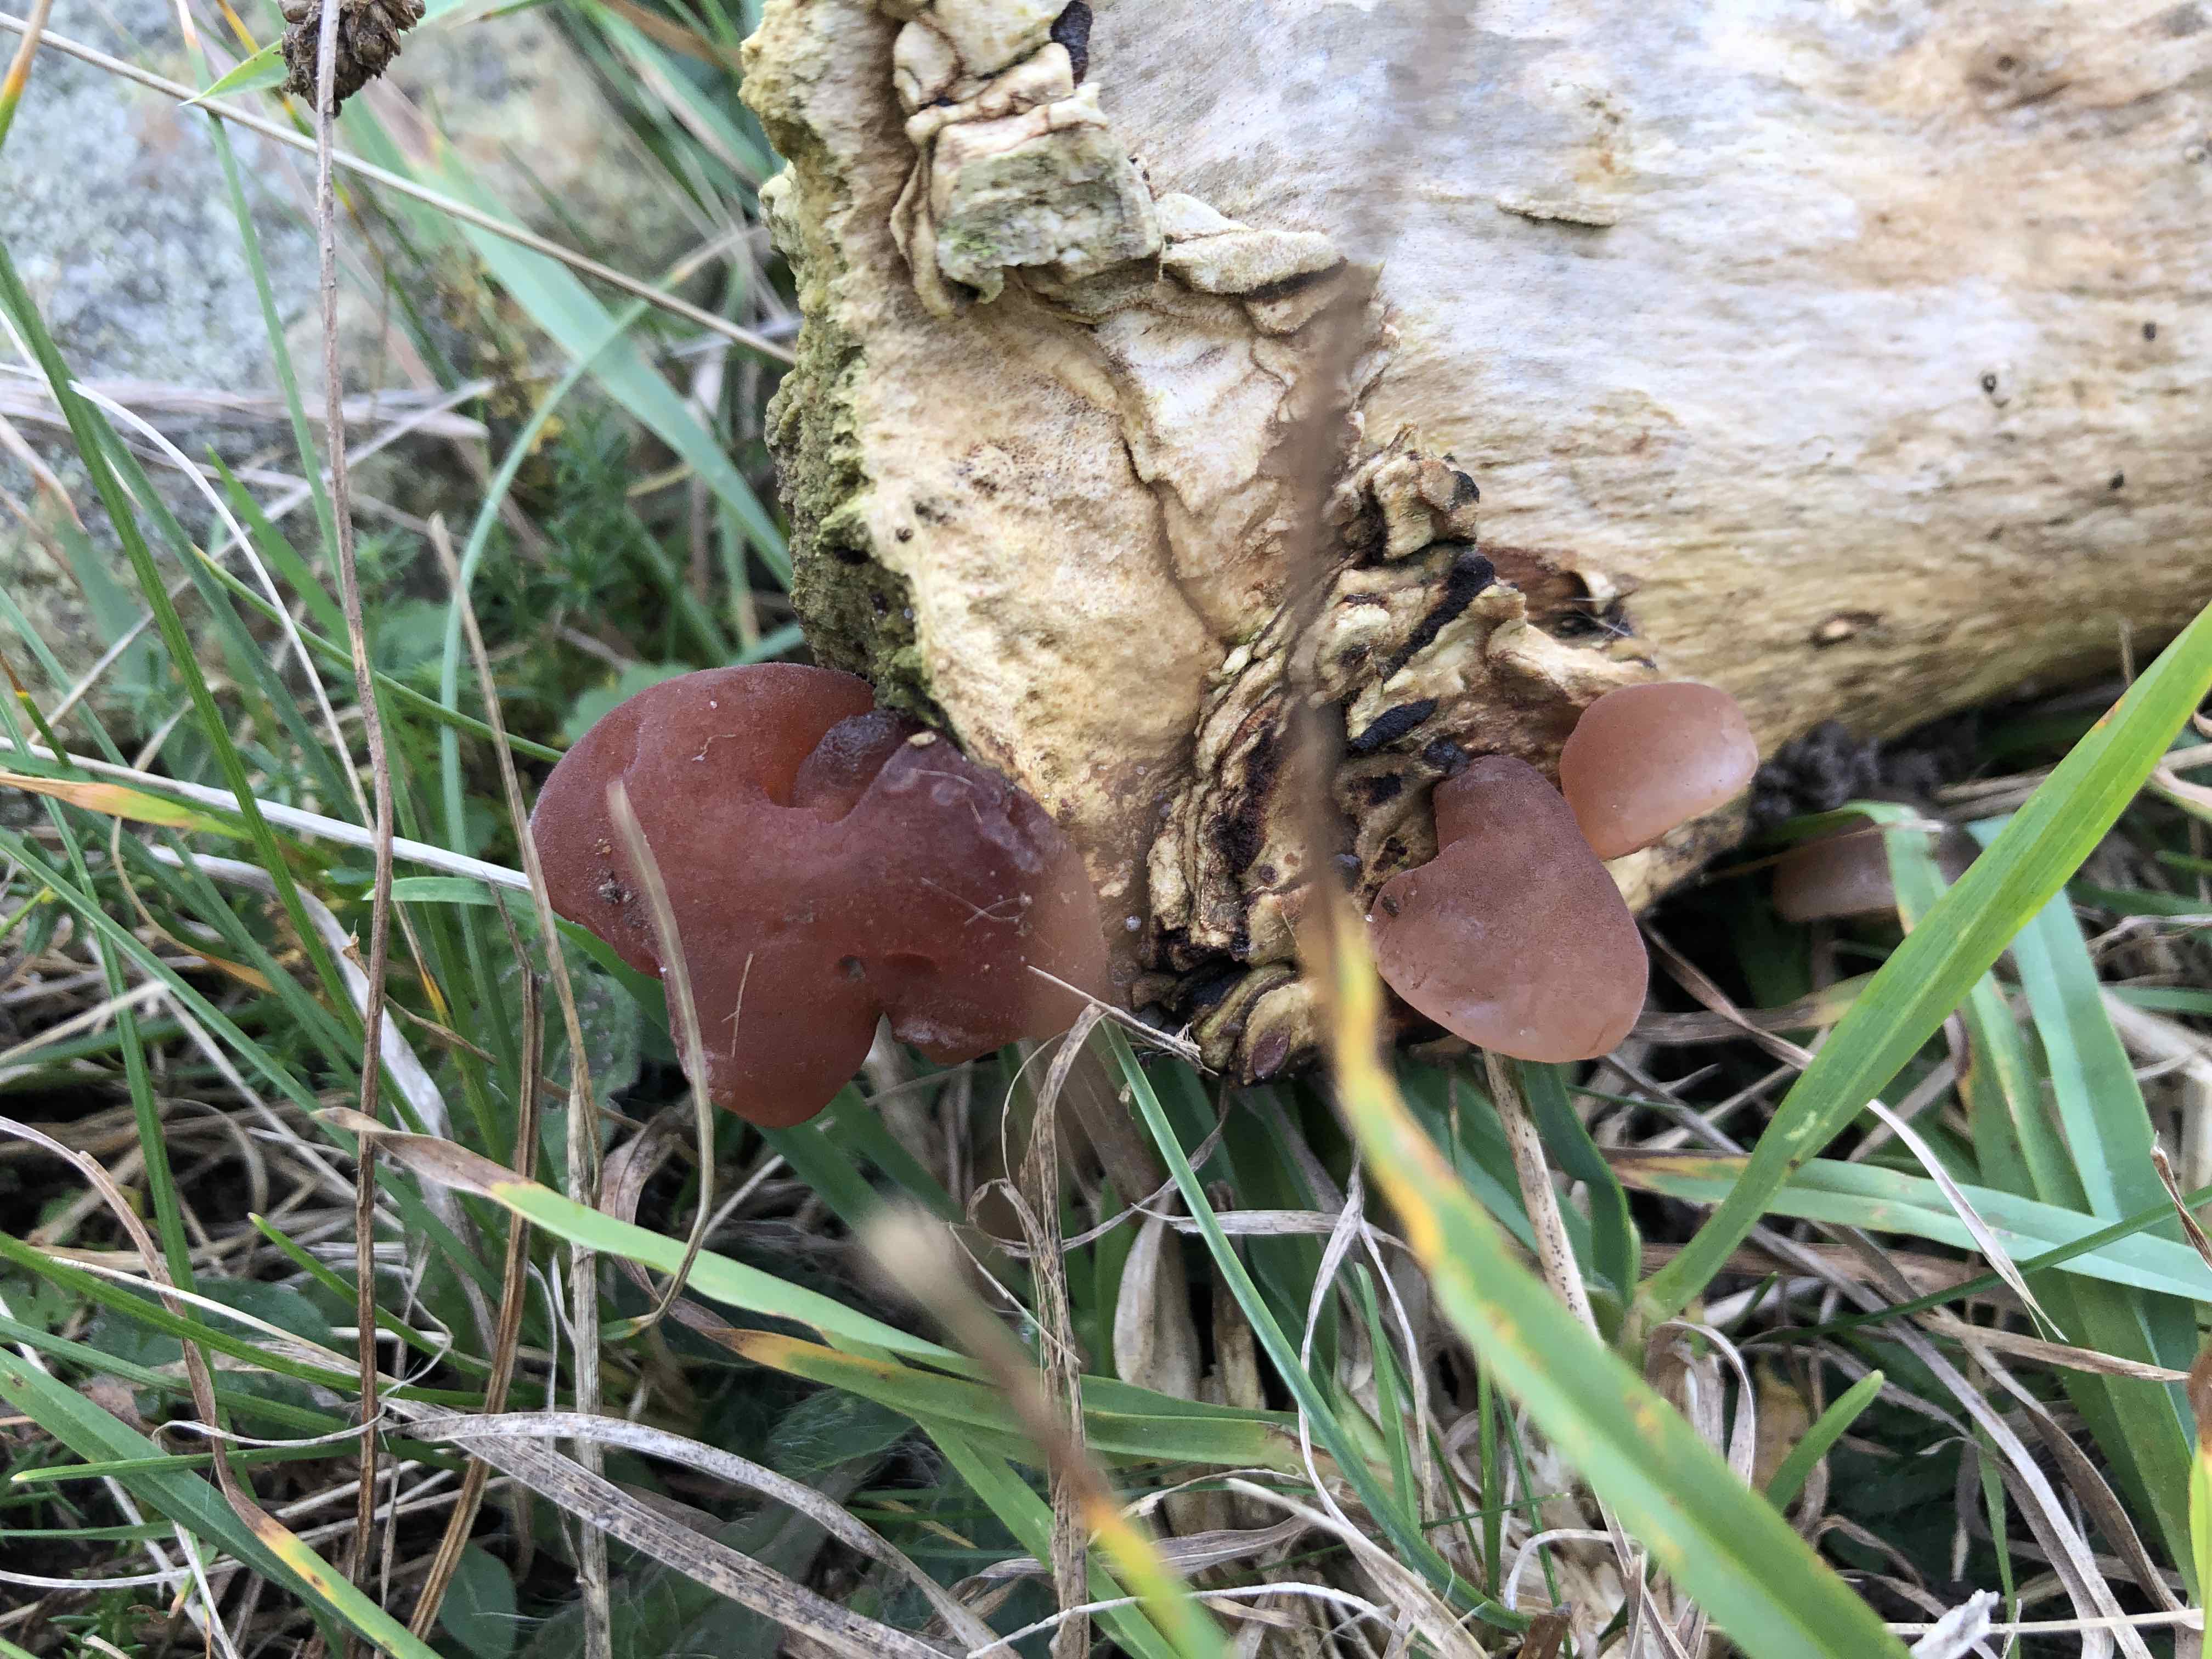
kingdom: Fungi
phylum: Basidiomycota
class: Agaricomycetes
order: Auriculariales
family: Auriculariaceae
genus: Auricularia
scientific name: Auricularia auricula-judae
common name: almindelig judasøre
